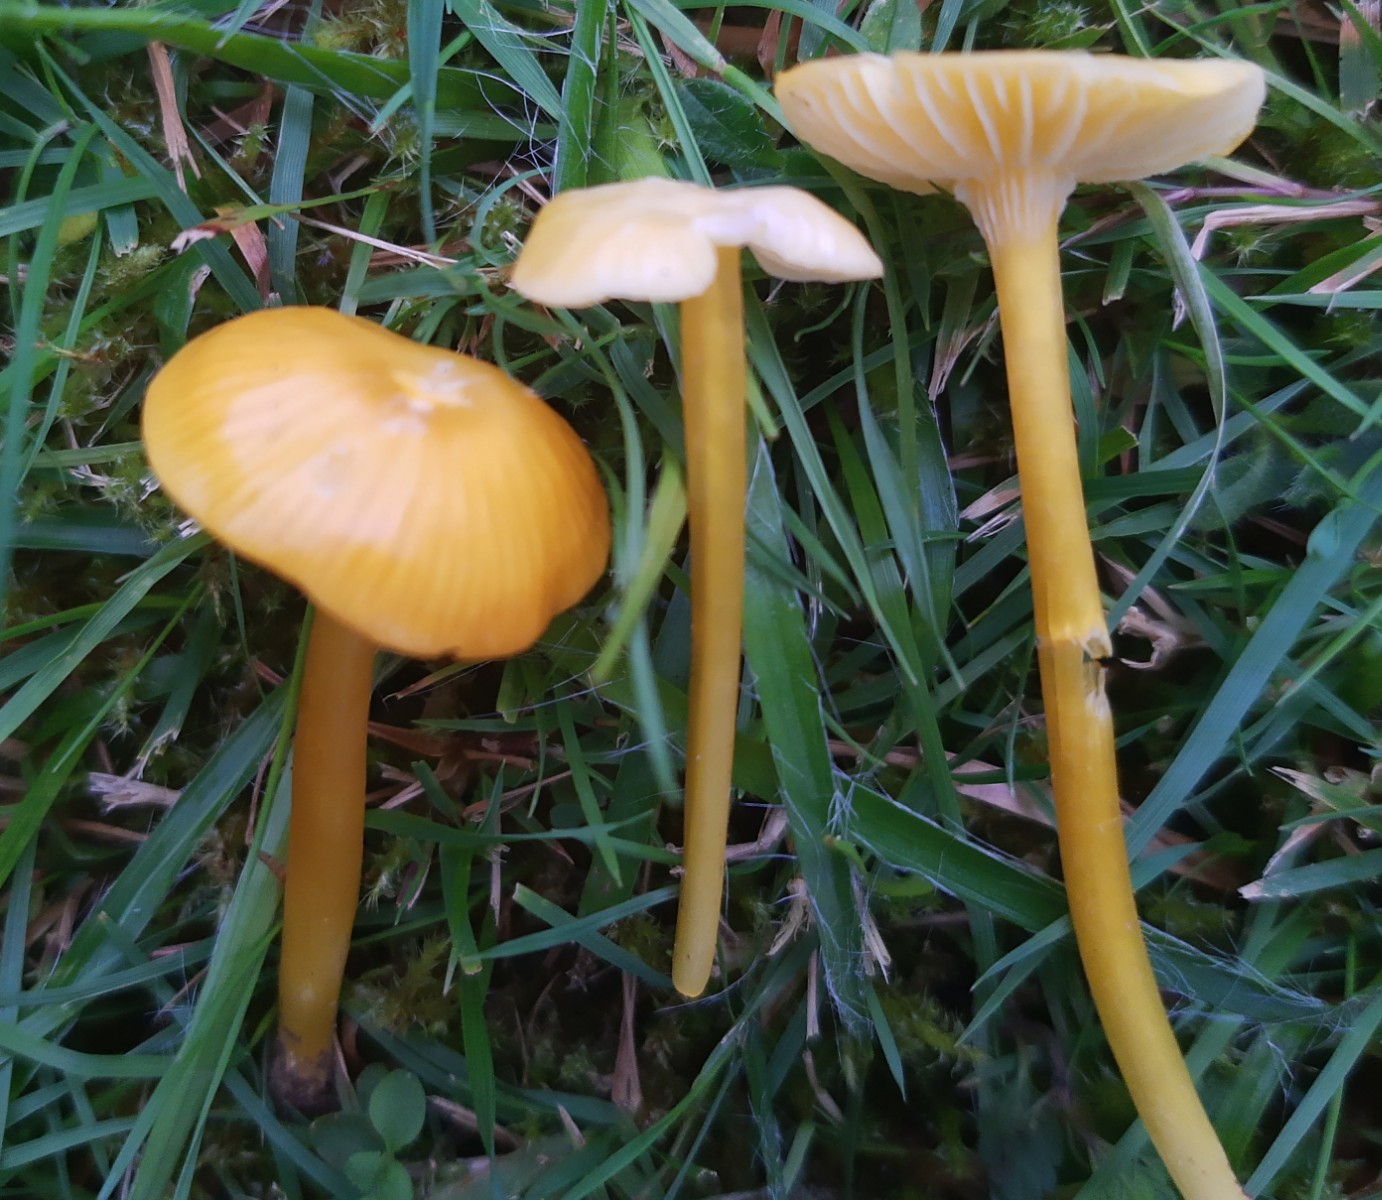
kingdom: Fungi
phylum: Basidiomycota
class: Agaricomycetes
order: Agaricales
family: Hygrophoraceae
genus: Hygrocybe
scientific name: Hygrocybe glutinipes
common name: slimstokket vokshat
